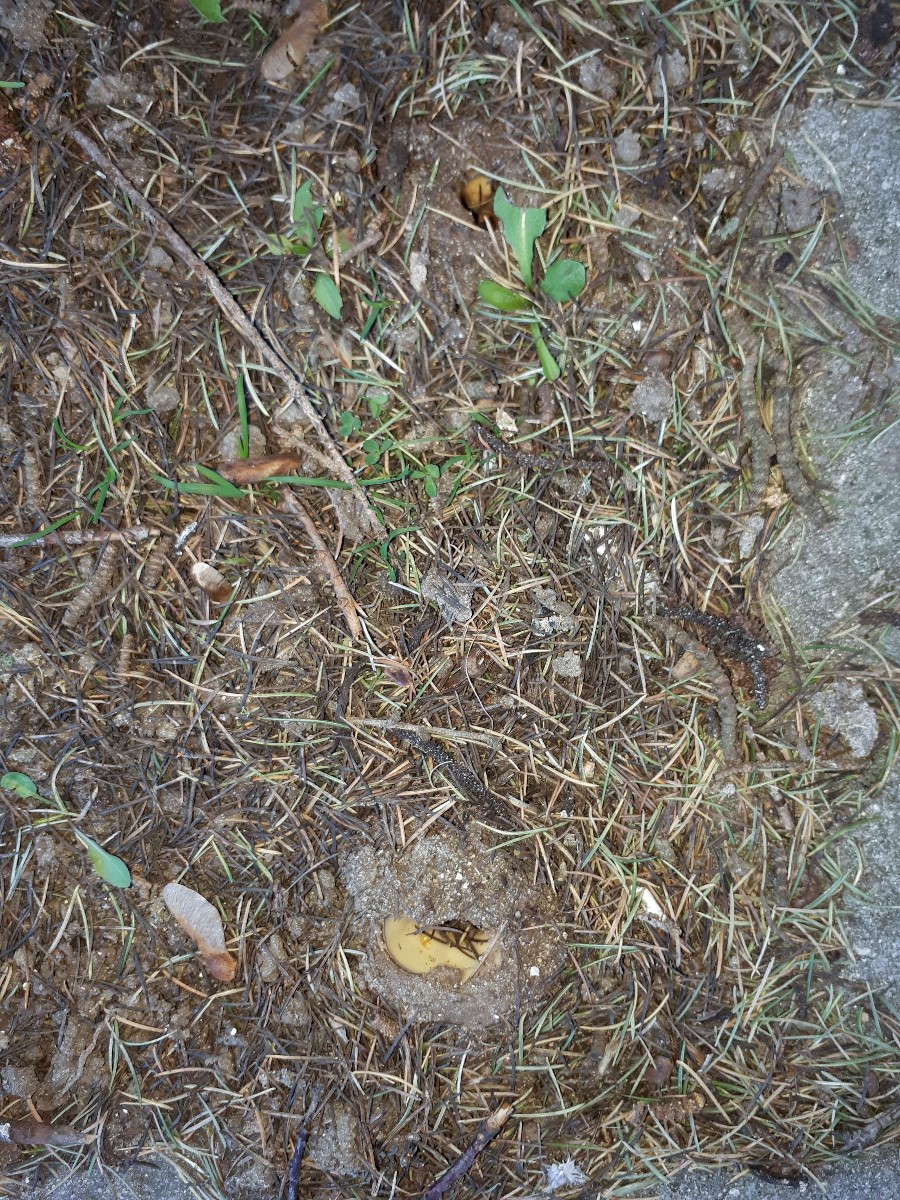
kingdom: Fungi
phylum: Ascomycota
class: Pezizomycetes
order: Pezizales
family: Pyronemataceae
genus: Geopora
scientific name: Geopora sumneriana
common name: vår-jordbæger
